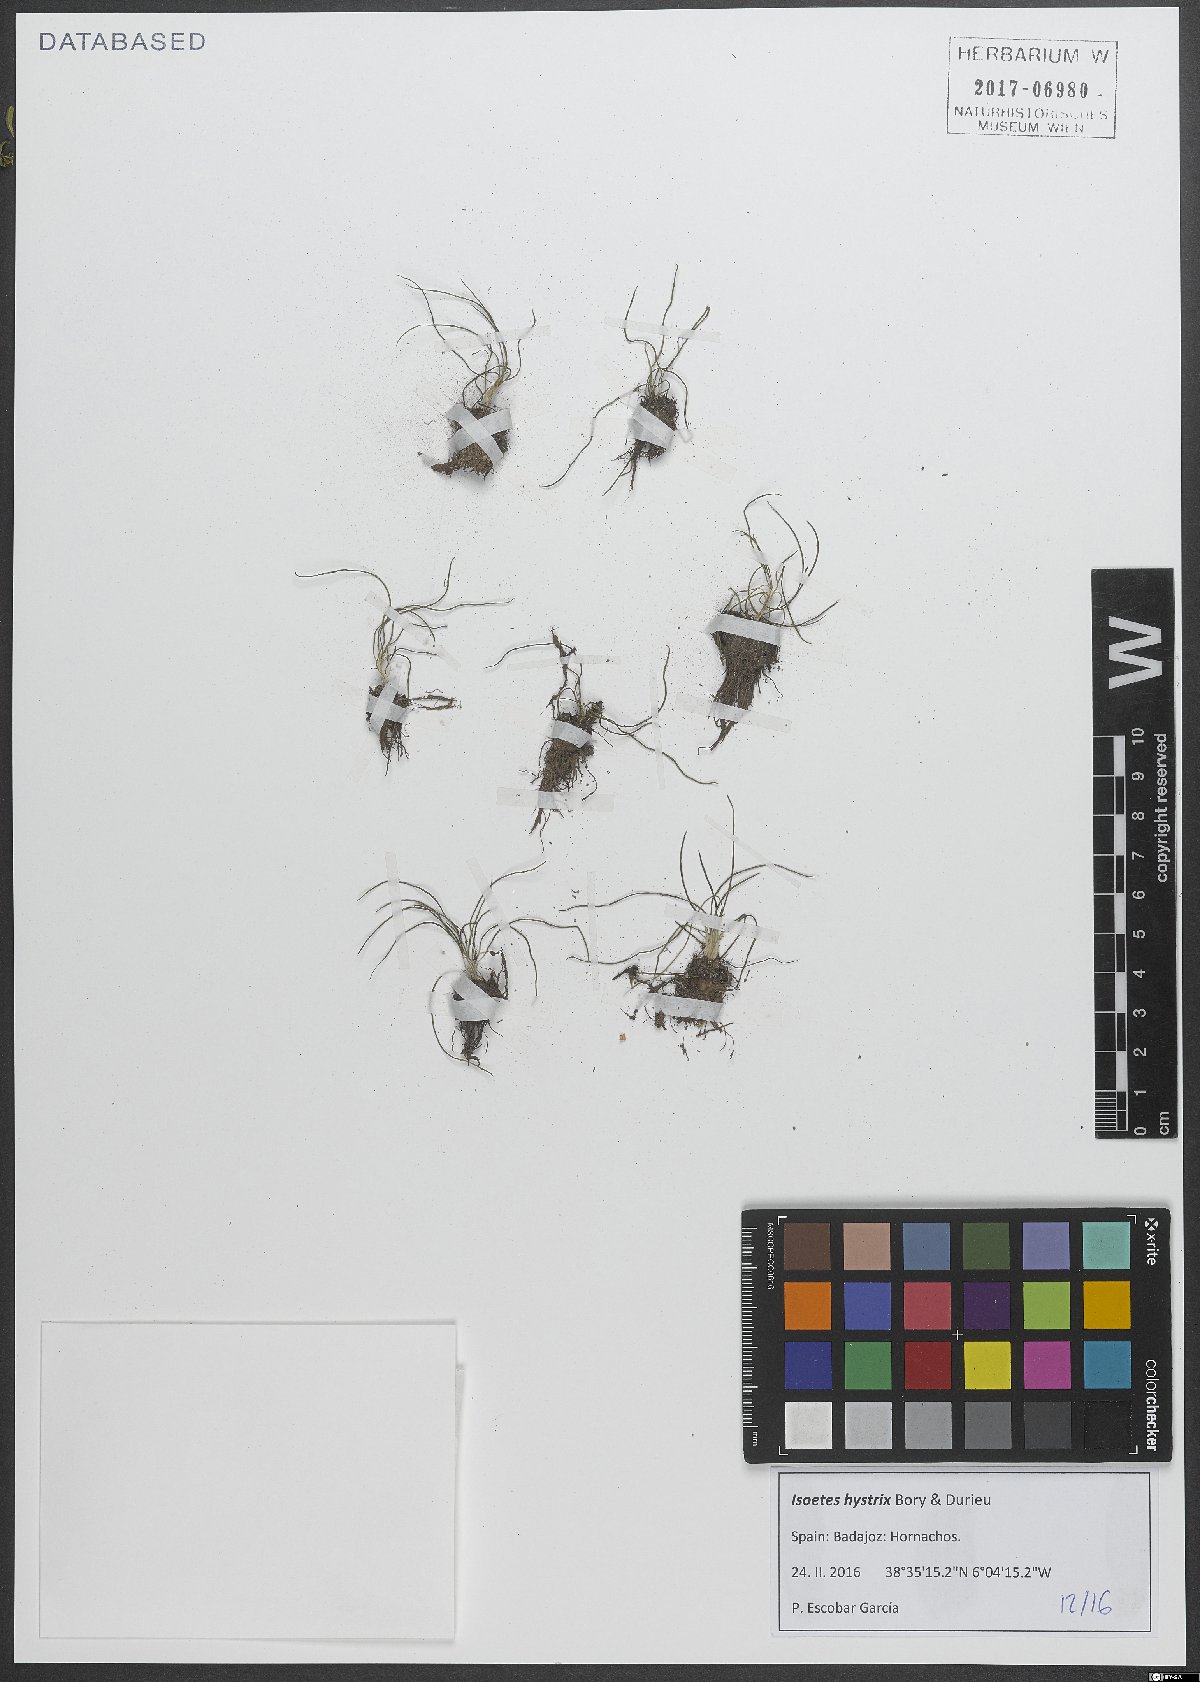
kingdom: Plantae
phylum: Tracheophyta
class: Lycopodiopsida
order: Isoetales
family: Isoetaceae
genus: Isoetes
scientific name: Isoetes
